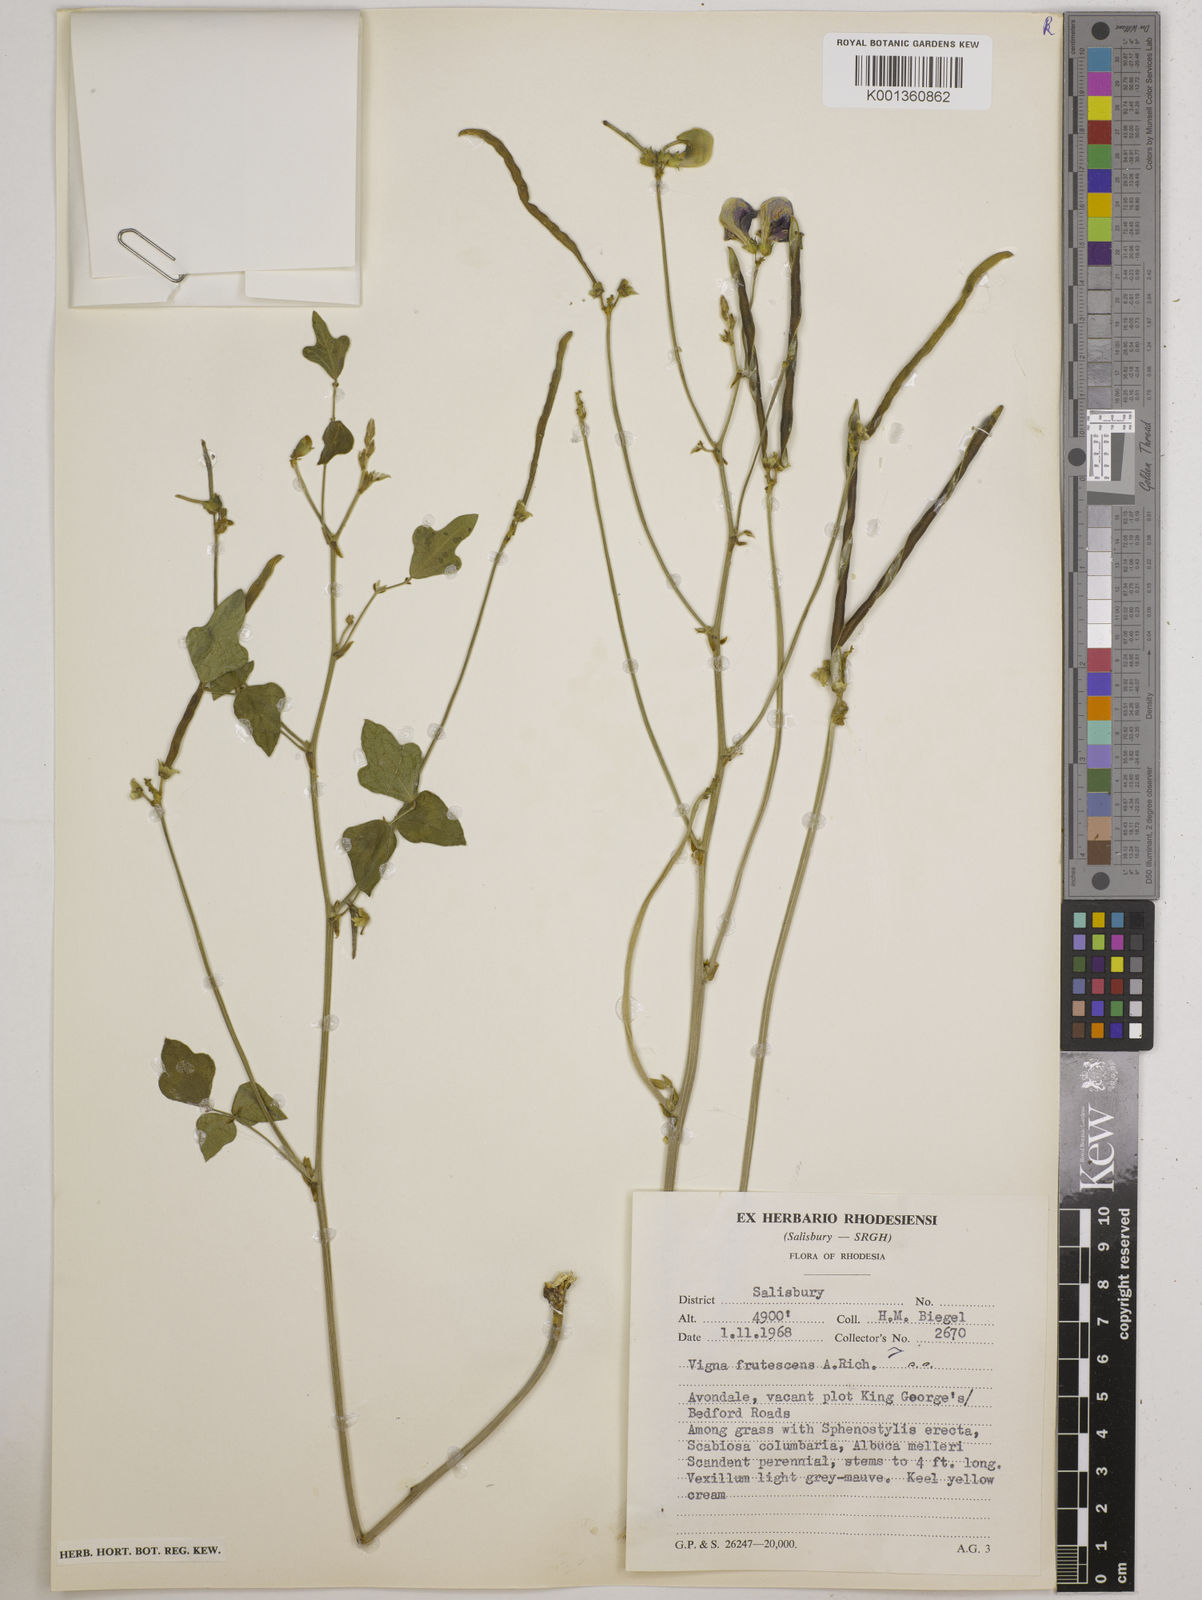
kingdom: Plantae
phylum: Tracheophyta
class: Magnoliopsida
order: Fabales
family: Fabaceae
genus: Vigna
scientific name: Vigna
